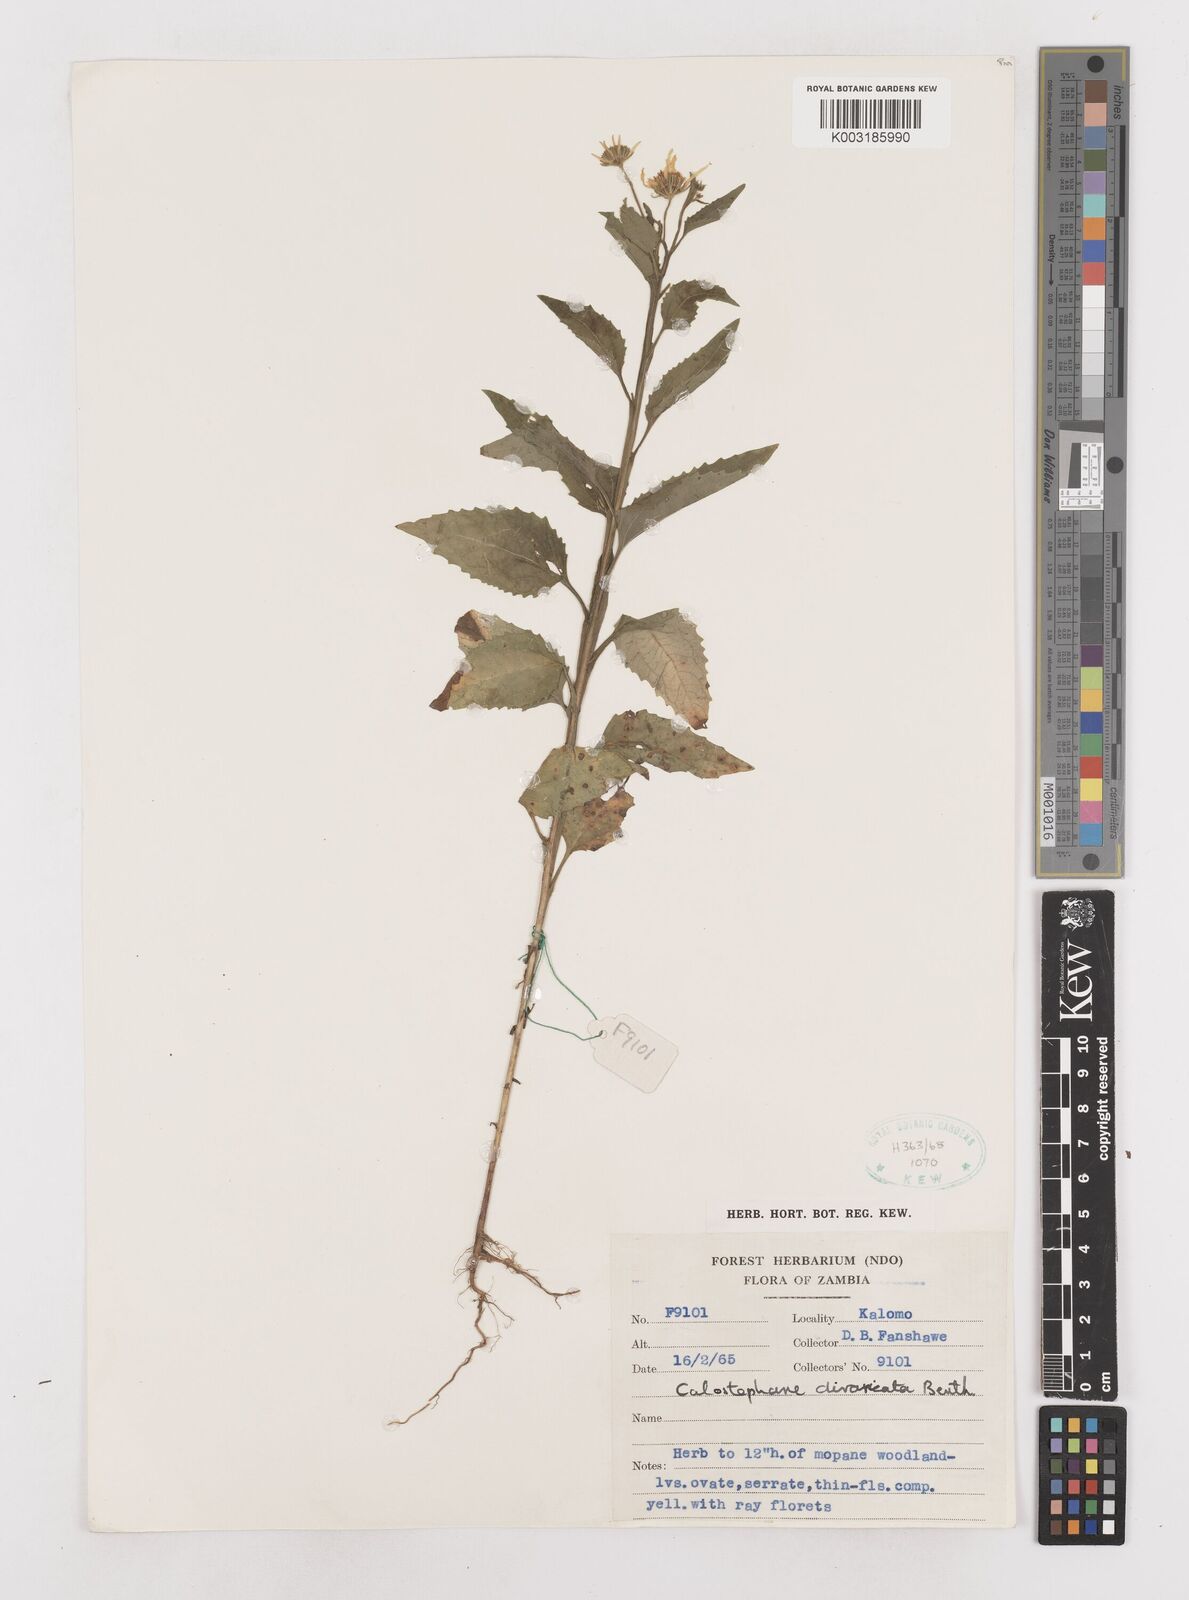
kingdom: Plantae
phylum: Tracheophyta
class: Magnoliopsida
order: Asterales
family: Asteraceae
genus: Calostephane
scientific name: Calostephane divaricata
